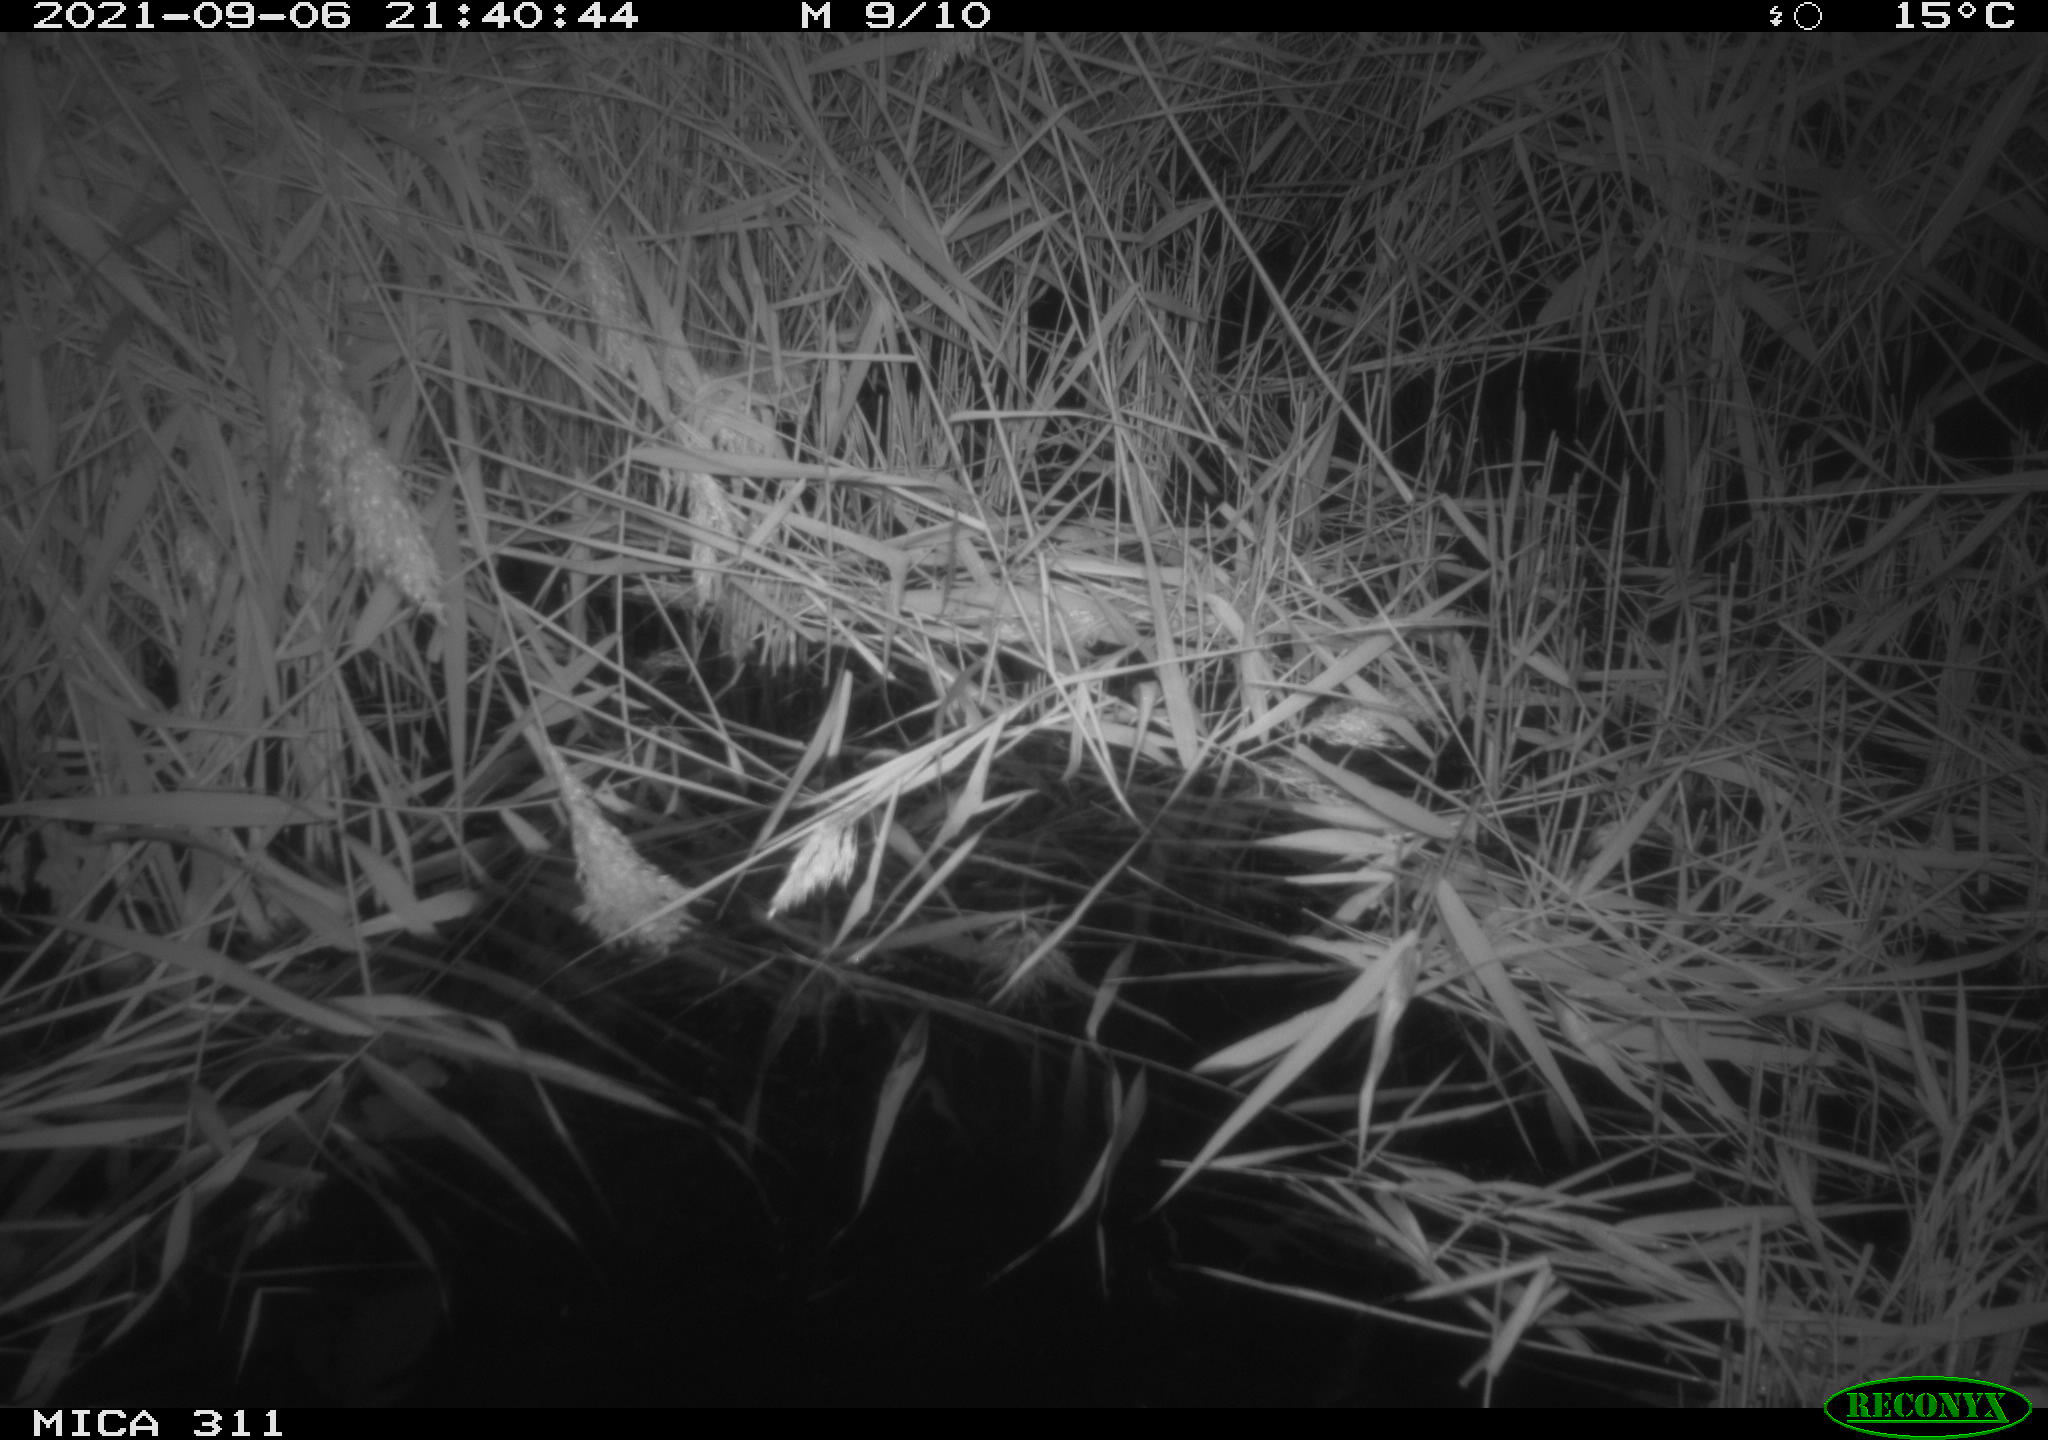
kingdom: Animalia
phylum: Chordata
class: Mammalia
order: Rodentia
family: Muridae
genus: Rattus
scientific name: Rattus norvegicus
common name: Brown rat
